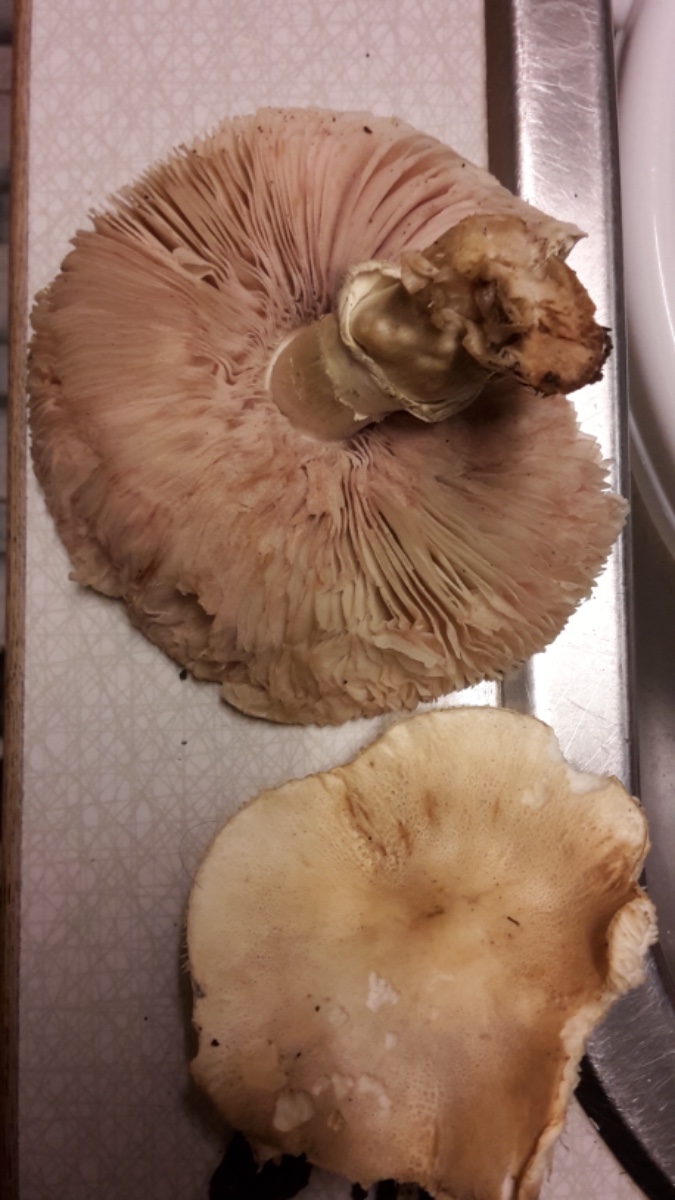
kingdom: Fungi
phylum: Basidiomycota
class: Agaricomycetes
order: Agaricales
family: Agaricaceae
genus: Leucoagaricus
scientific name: Leucoagaricus leucothites
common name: rosabladet silkehat
